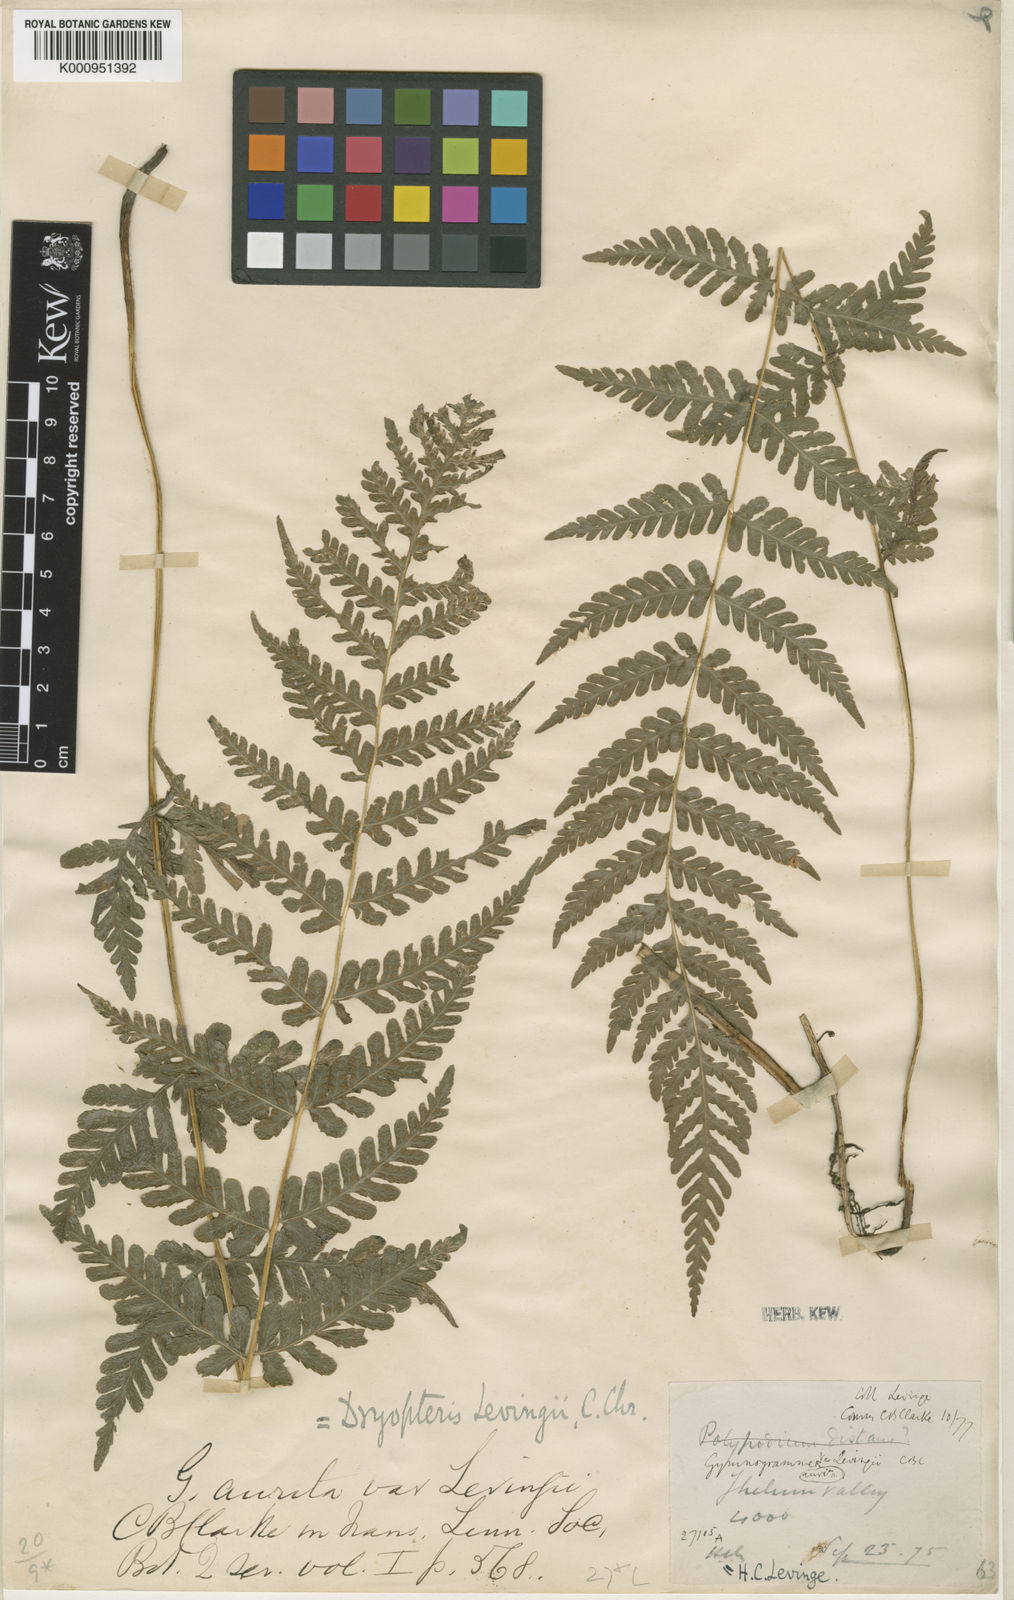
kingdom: Plantae
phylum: Tracheophyta
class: Polypodiopsida
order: Polypodiales
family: Thelypteridaceae
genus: Pseudophegopteris
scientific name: Pseudophegopteris levingei
